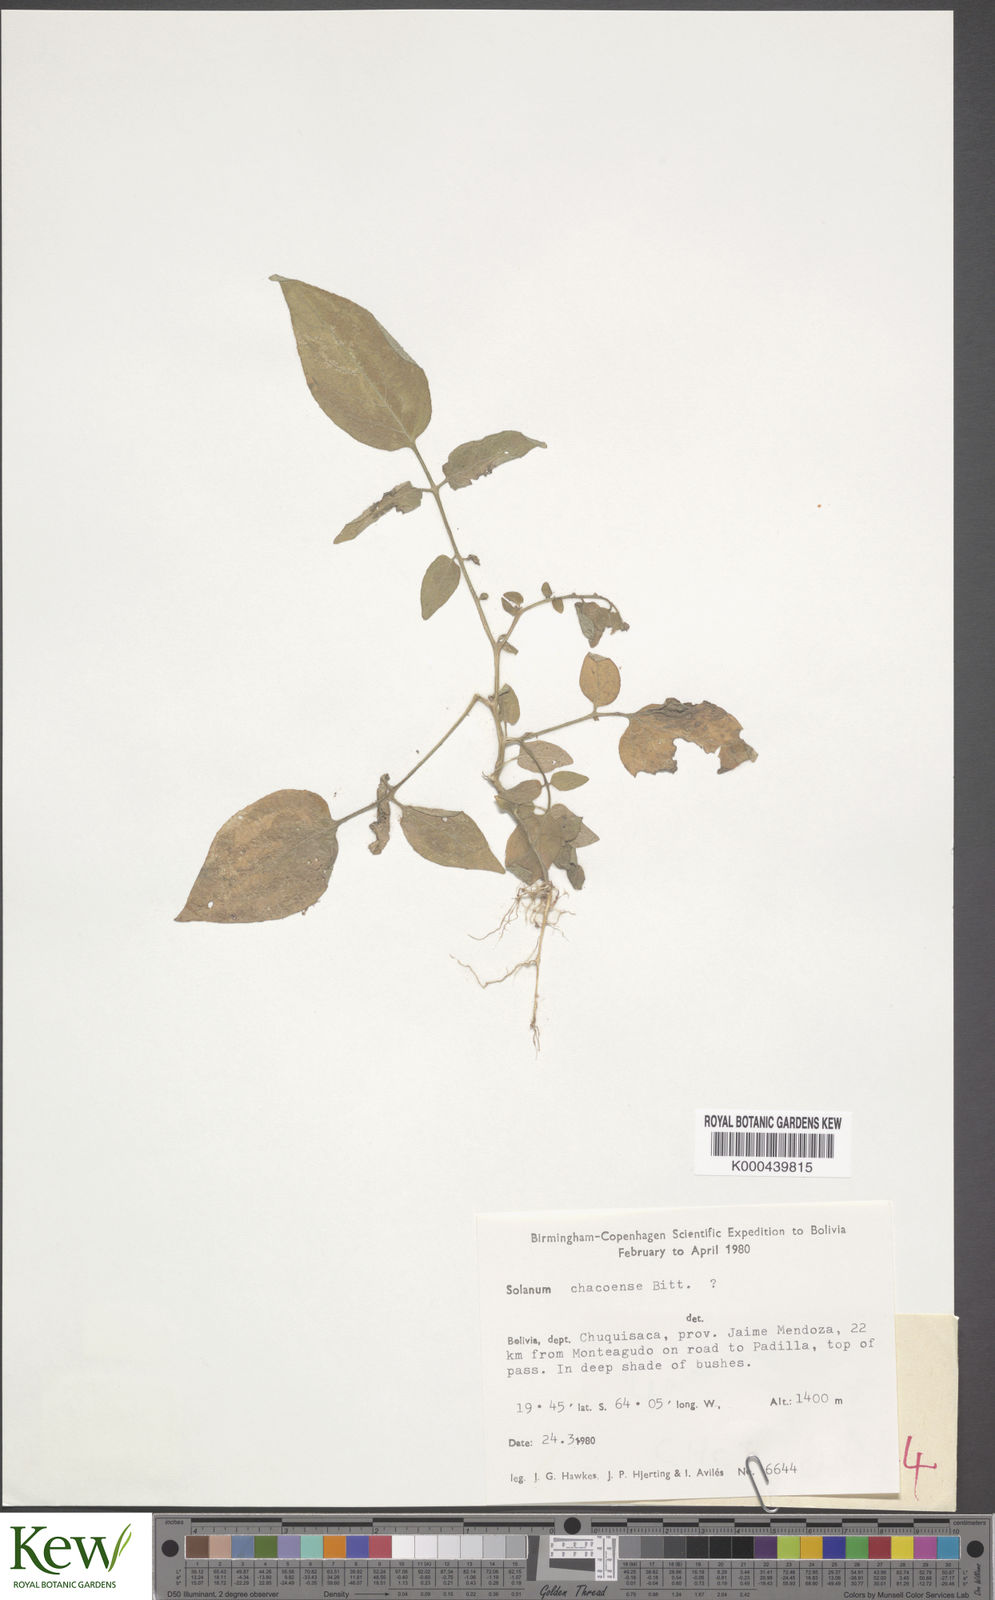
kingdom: Plantae
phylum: Tracheophyta
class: Magnoliopsida
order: Solanales
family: Solanaceae
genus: Solanum
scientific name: Solanum chacoense
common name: Chaco potato
